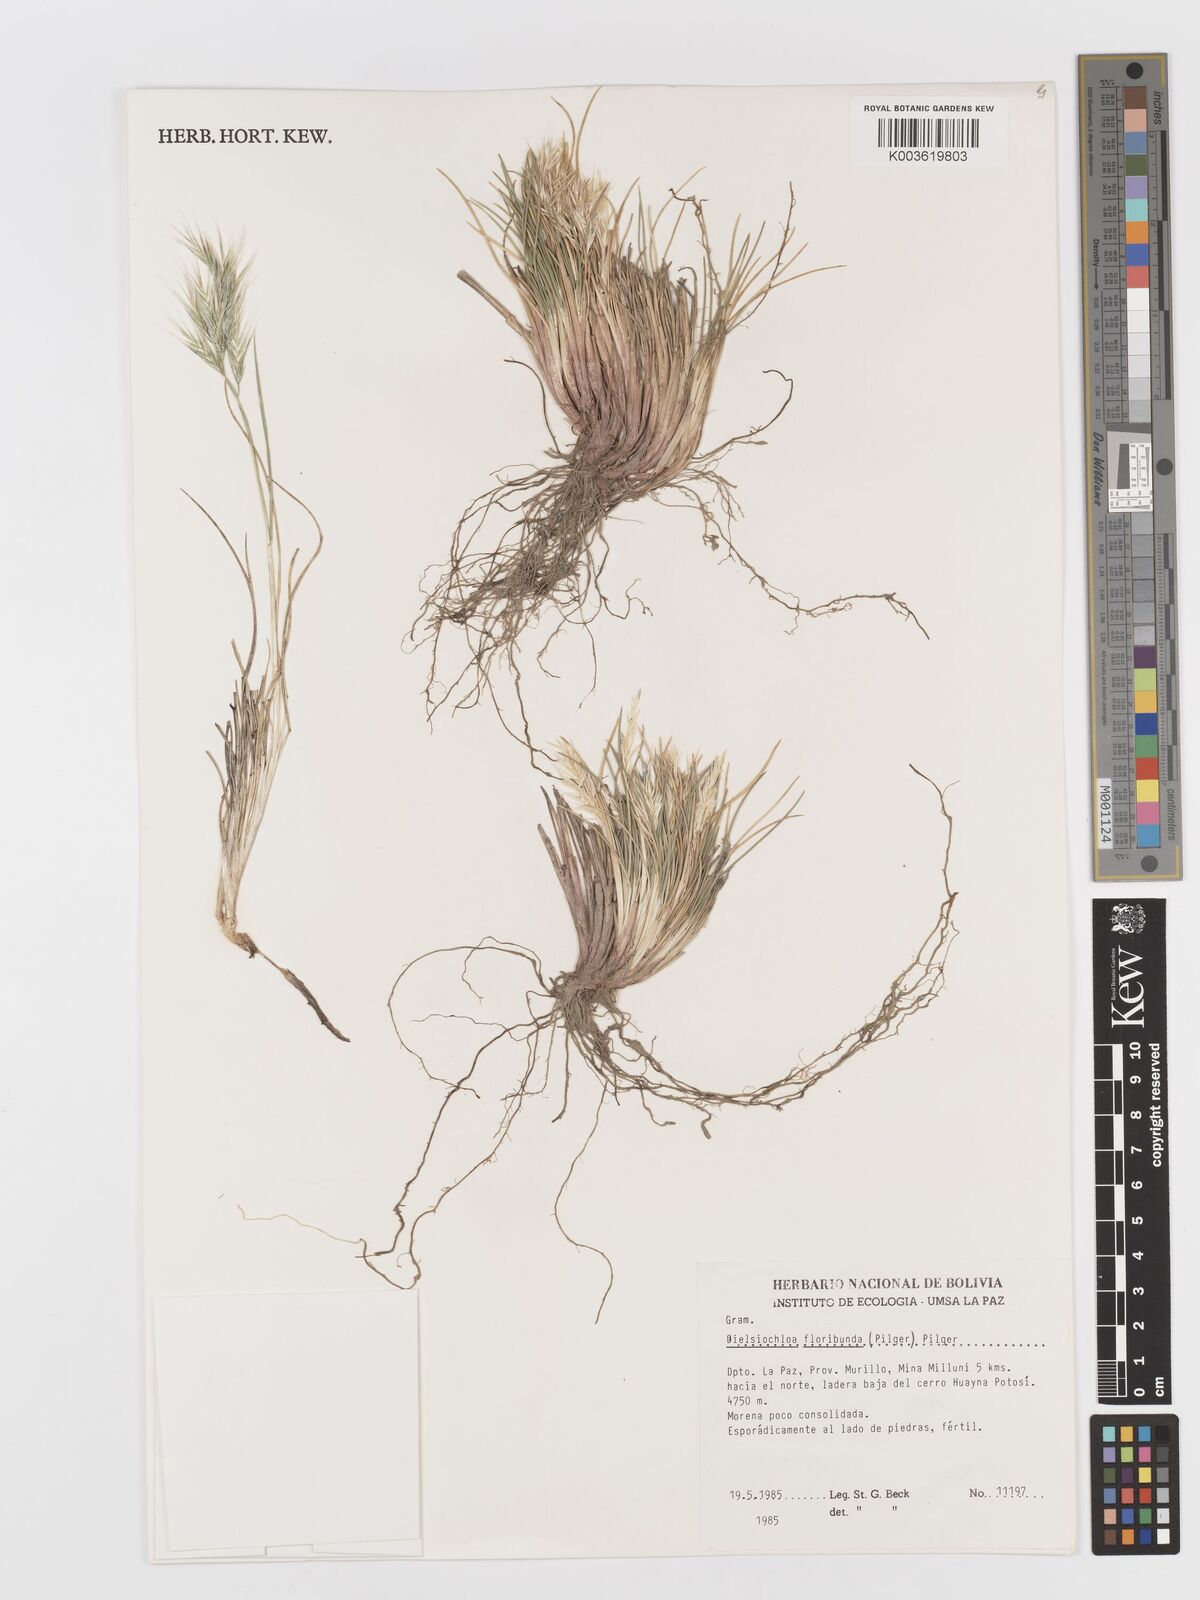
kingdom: Plantae
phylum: Tracheophyta
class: Liliopsida
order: Poales
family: Poaceae
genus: Festuca
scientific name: Festuca floribunda
